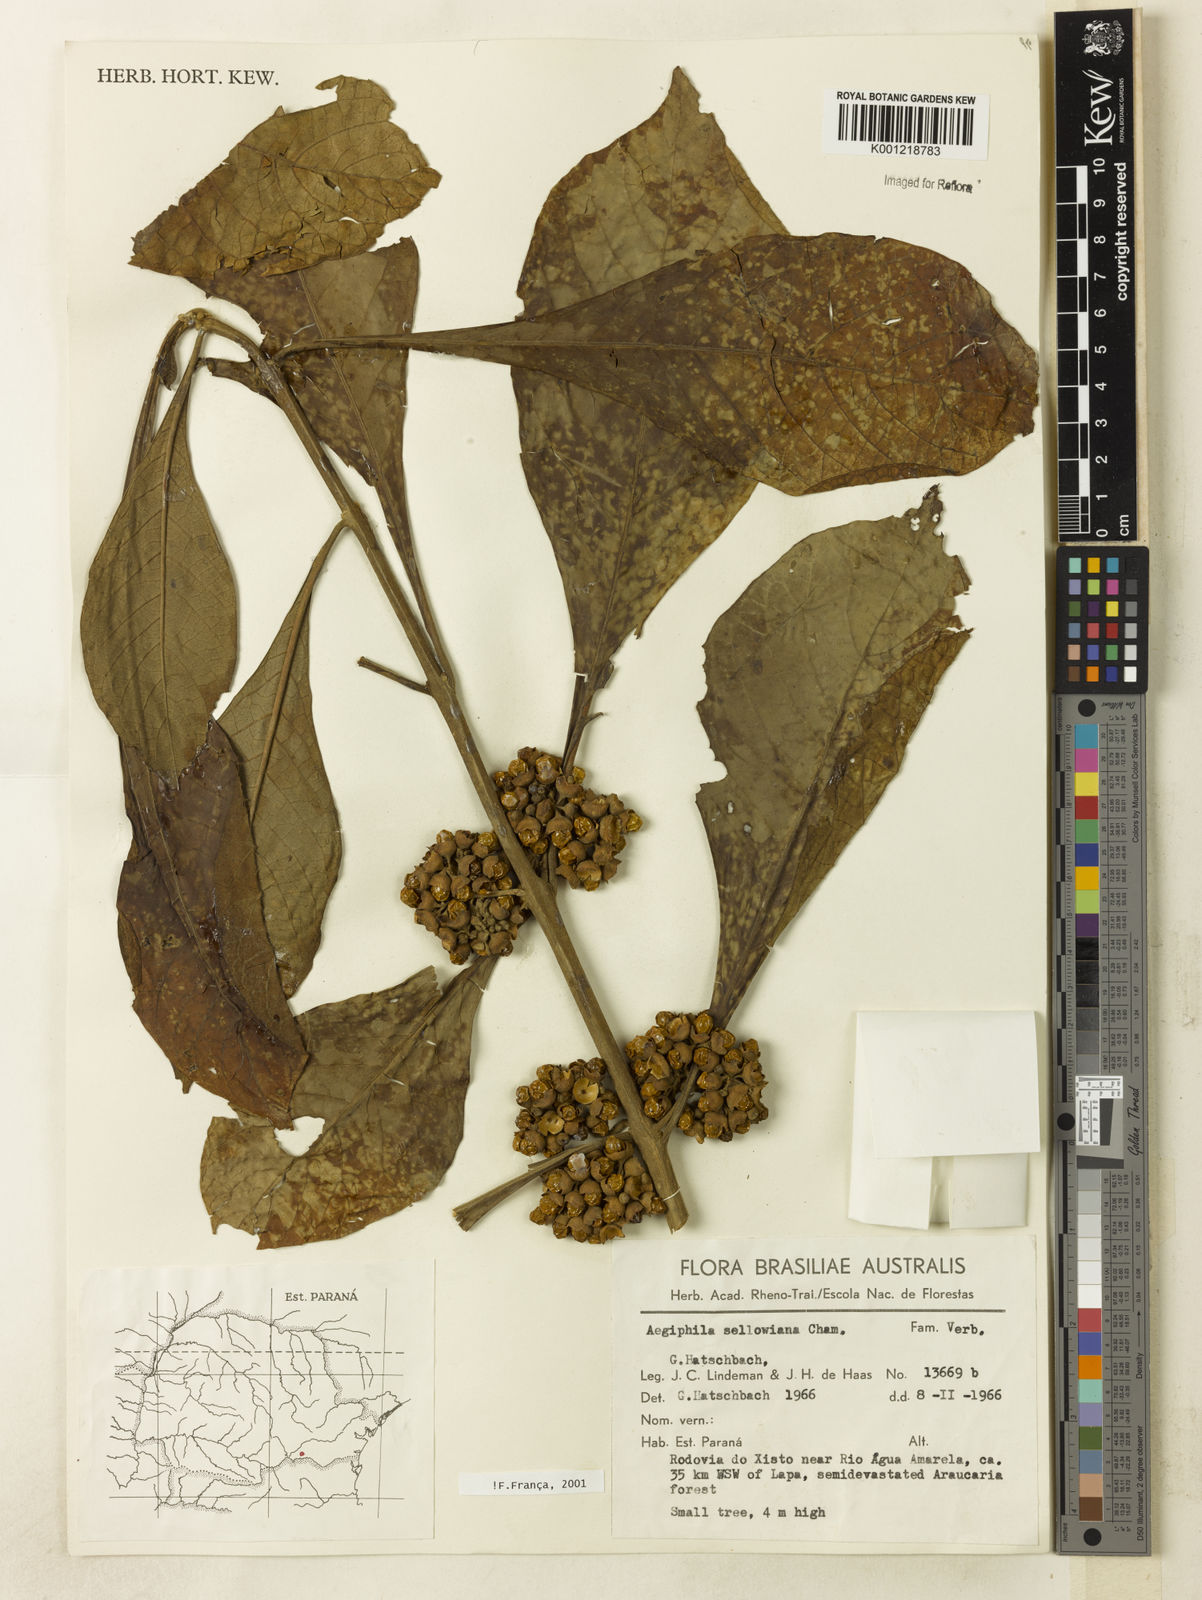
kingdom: Plantae
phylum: Tracheophyta
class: Magnoliopsida
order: Lamiales
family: Lamiaceae
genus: Aegiphila
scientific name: Aegiphila verticillata
